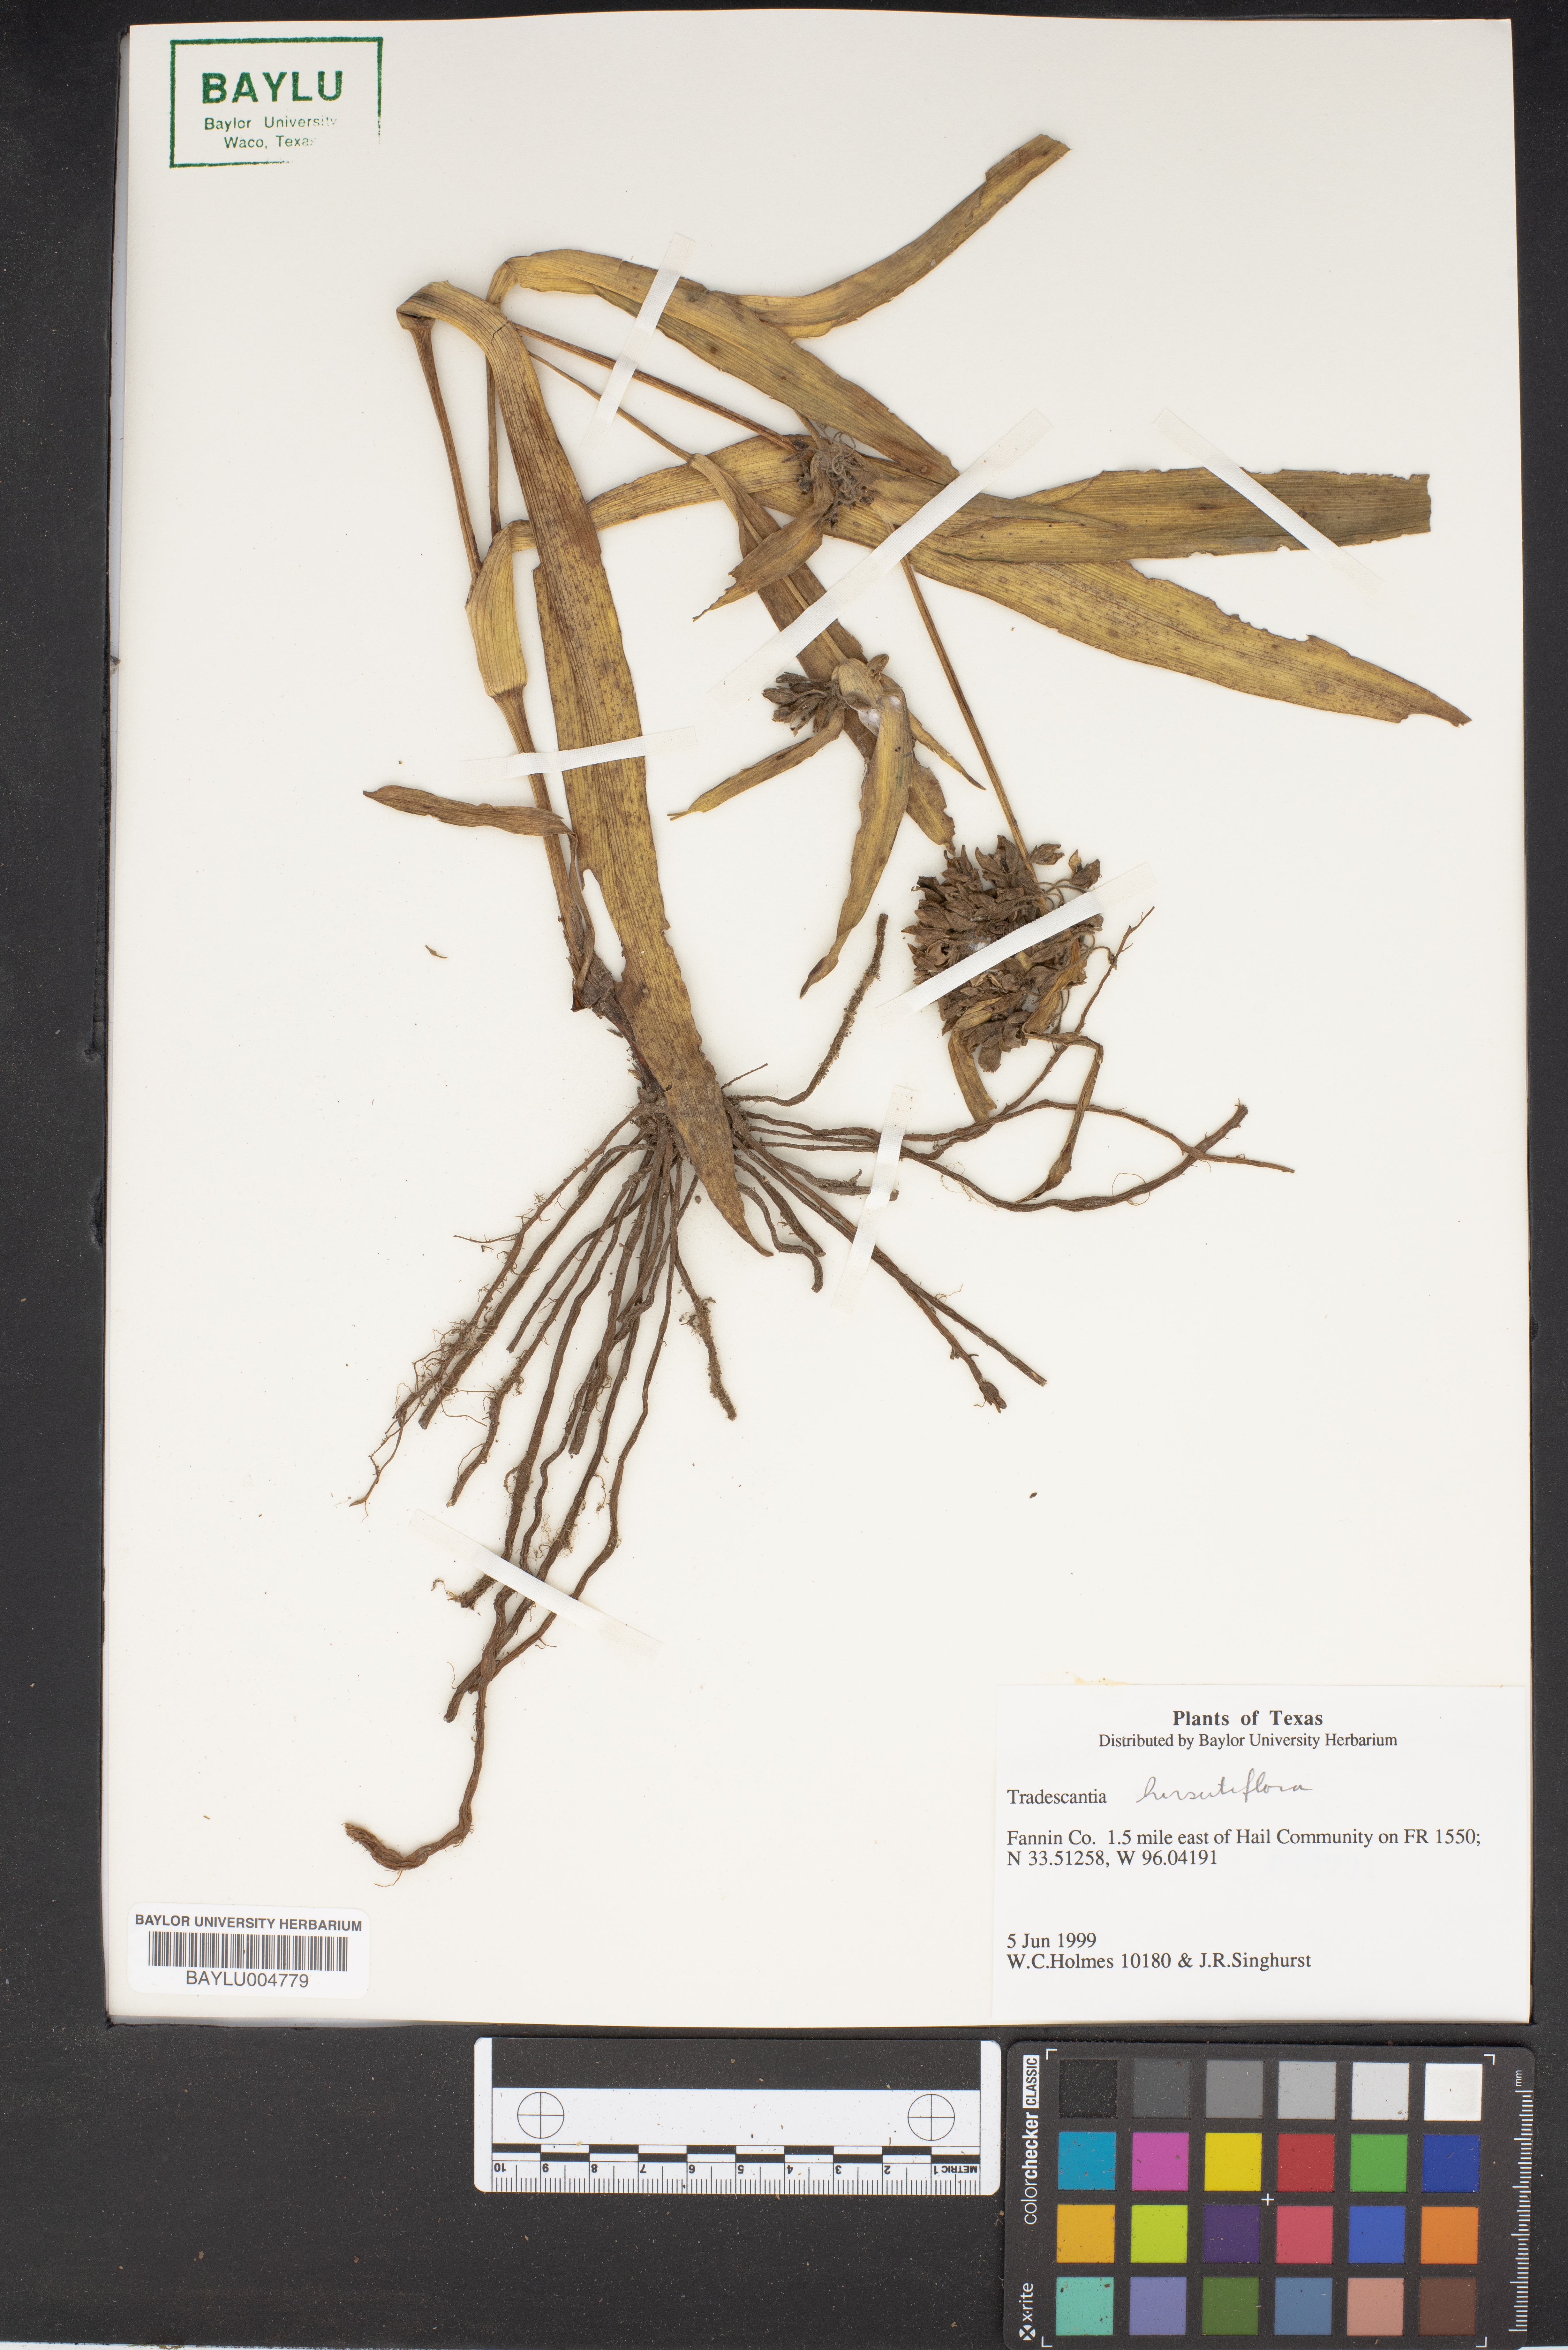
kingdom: Plantae
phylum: Tracheophyta
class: Liliopsida
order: Commelinales
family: Commelinaceae
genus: Tradescantia
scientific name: Tradescantia hirsutiflora
